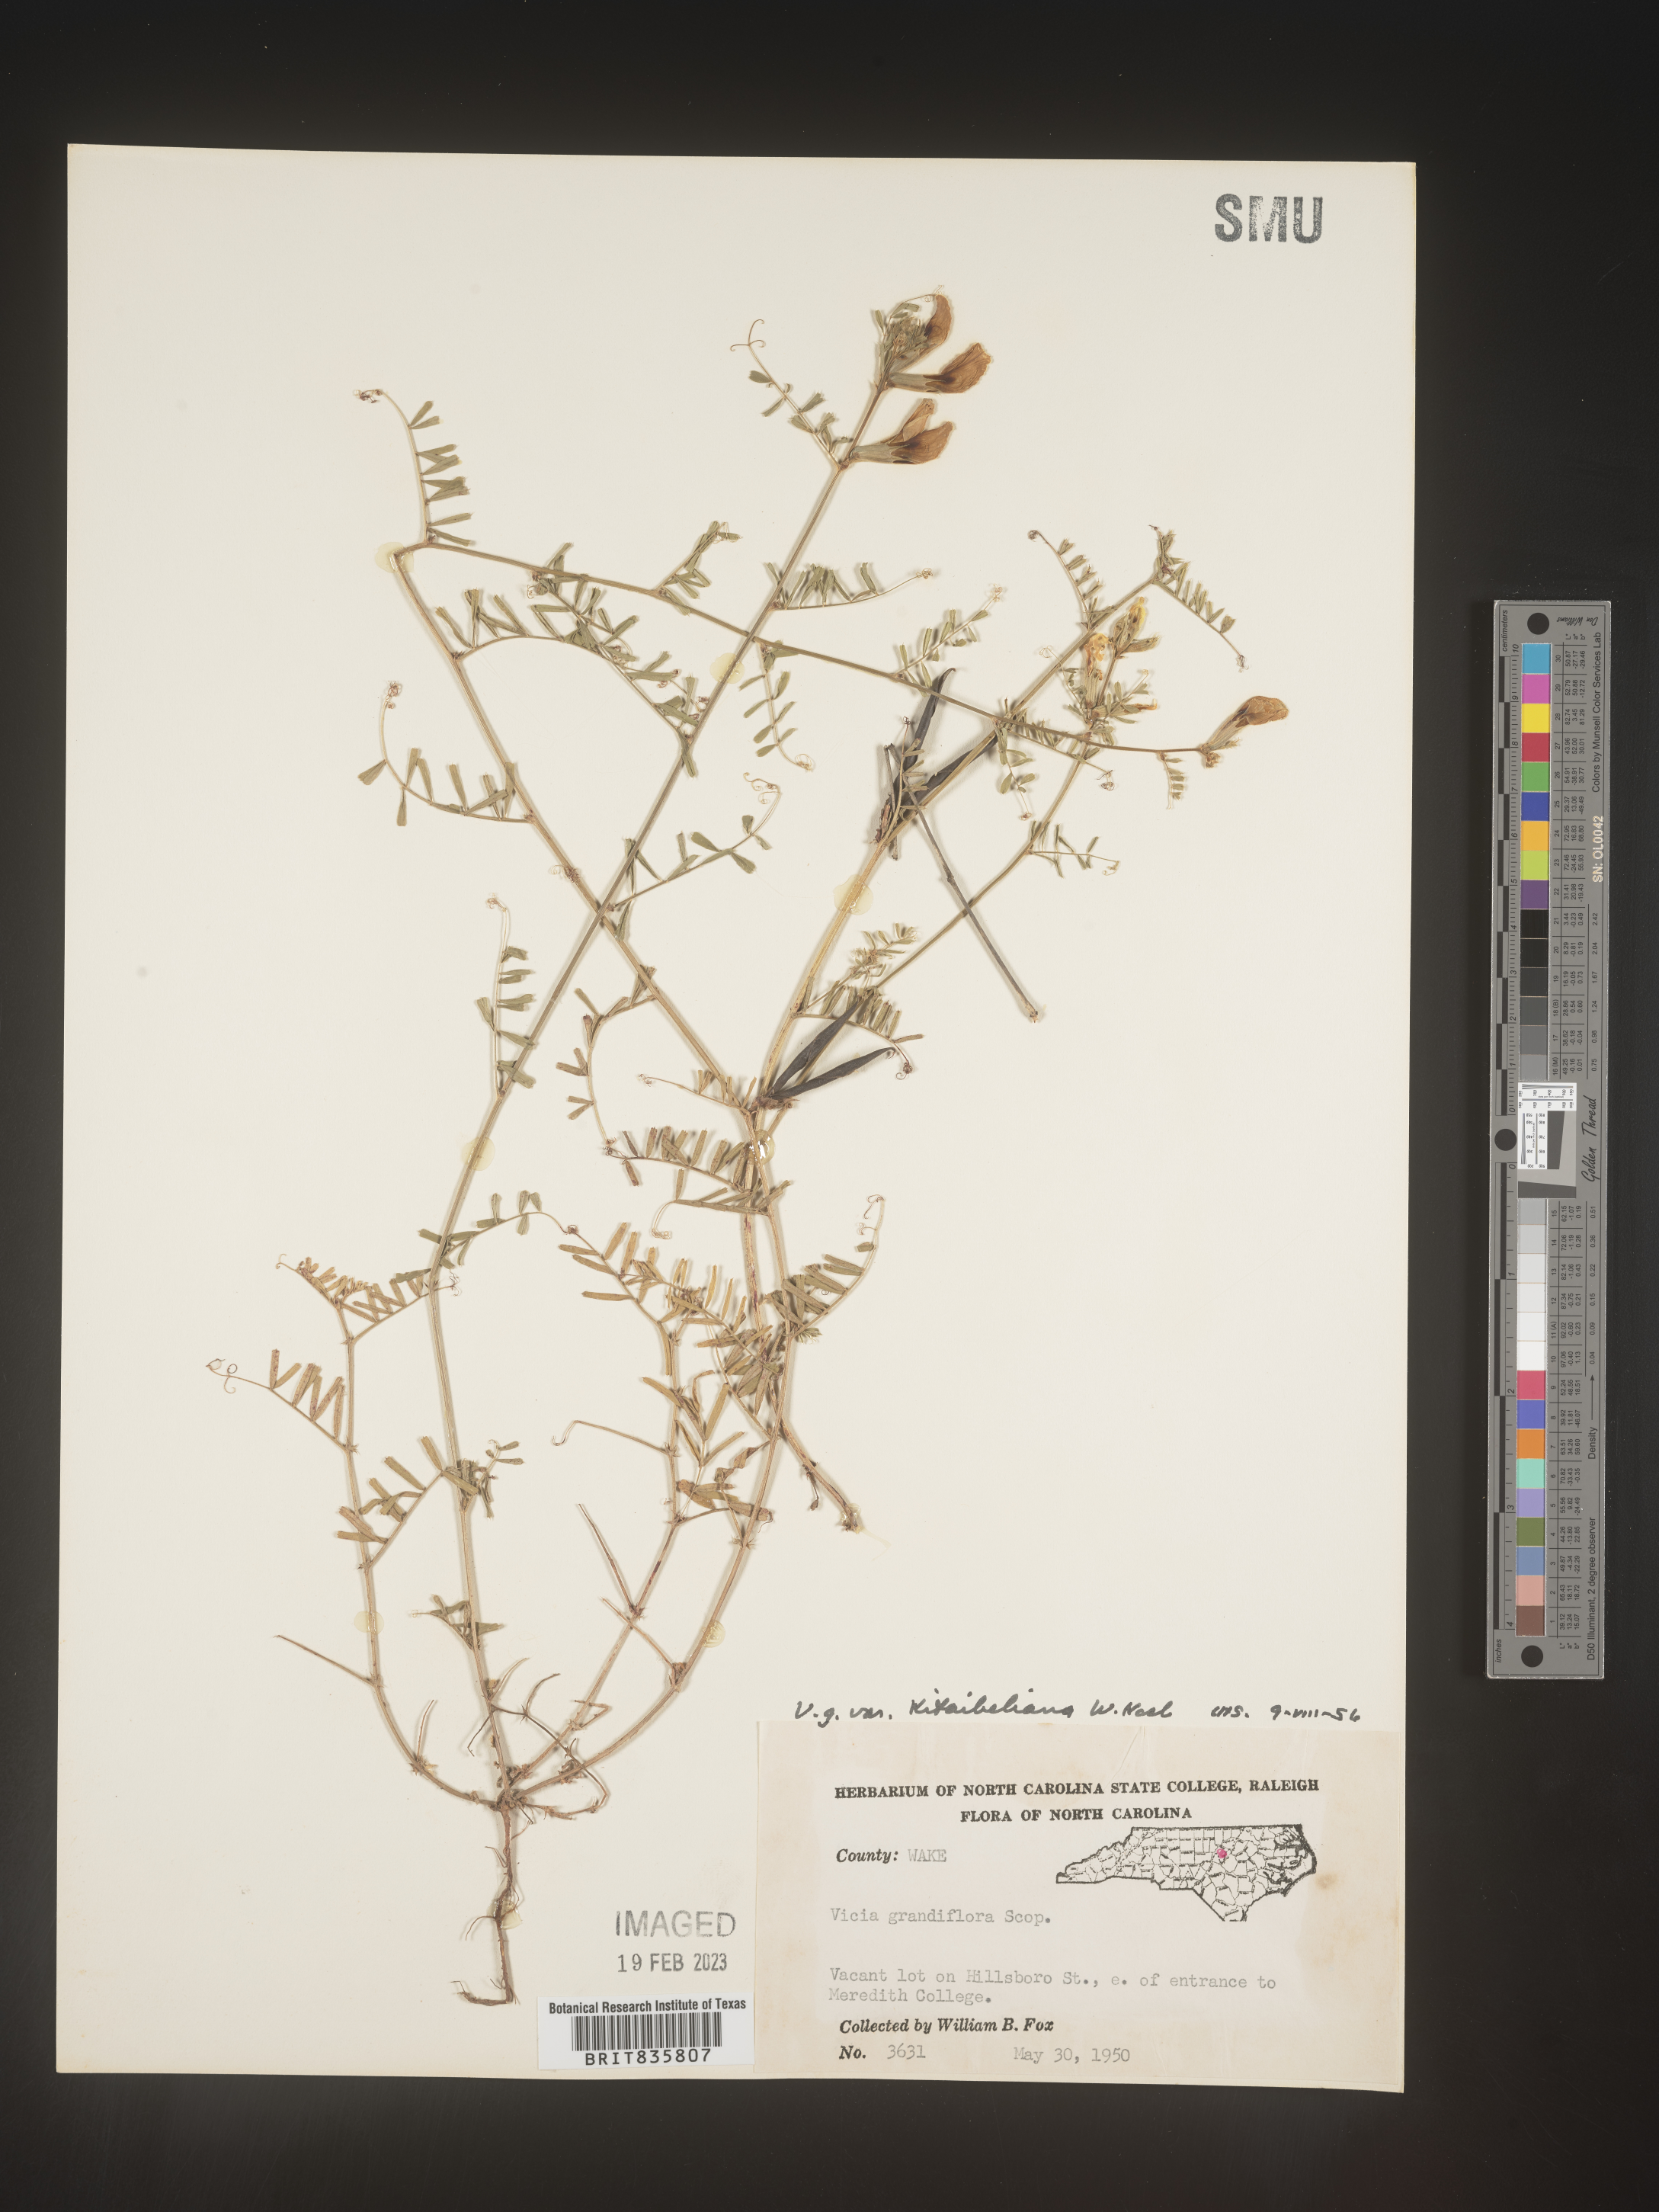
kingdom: Plantae
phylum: Tracheophyta
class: Magnoliopsida
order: Fabales
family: Fabaceae
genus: Vicia
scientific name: Vicia grandiflora
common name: Large yellow vetch
